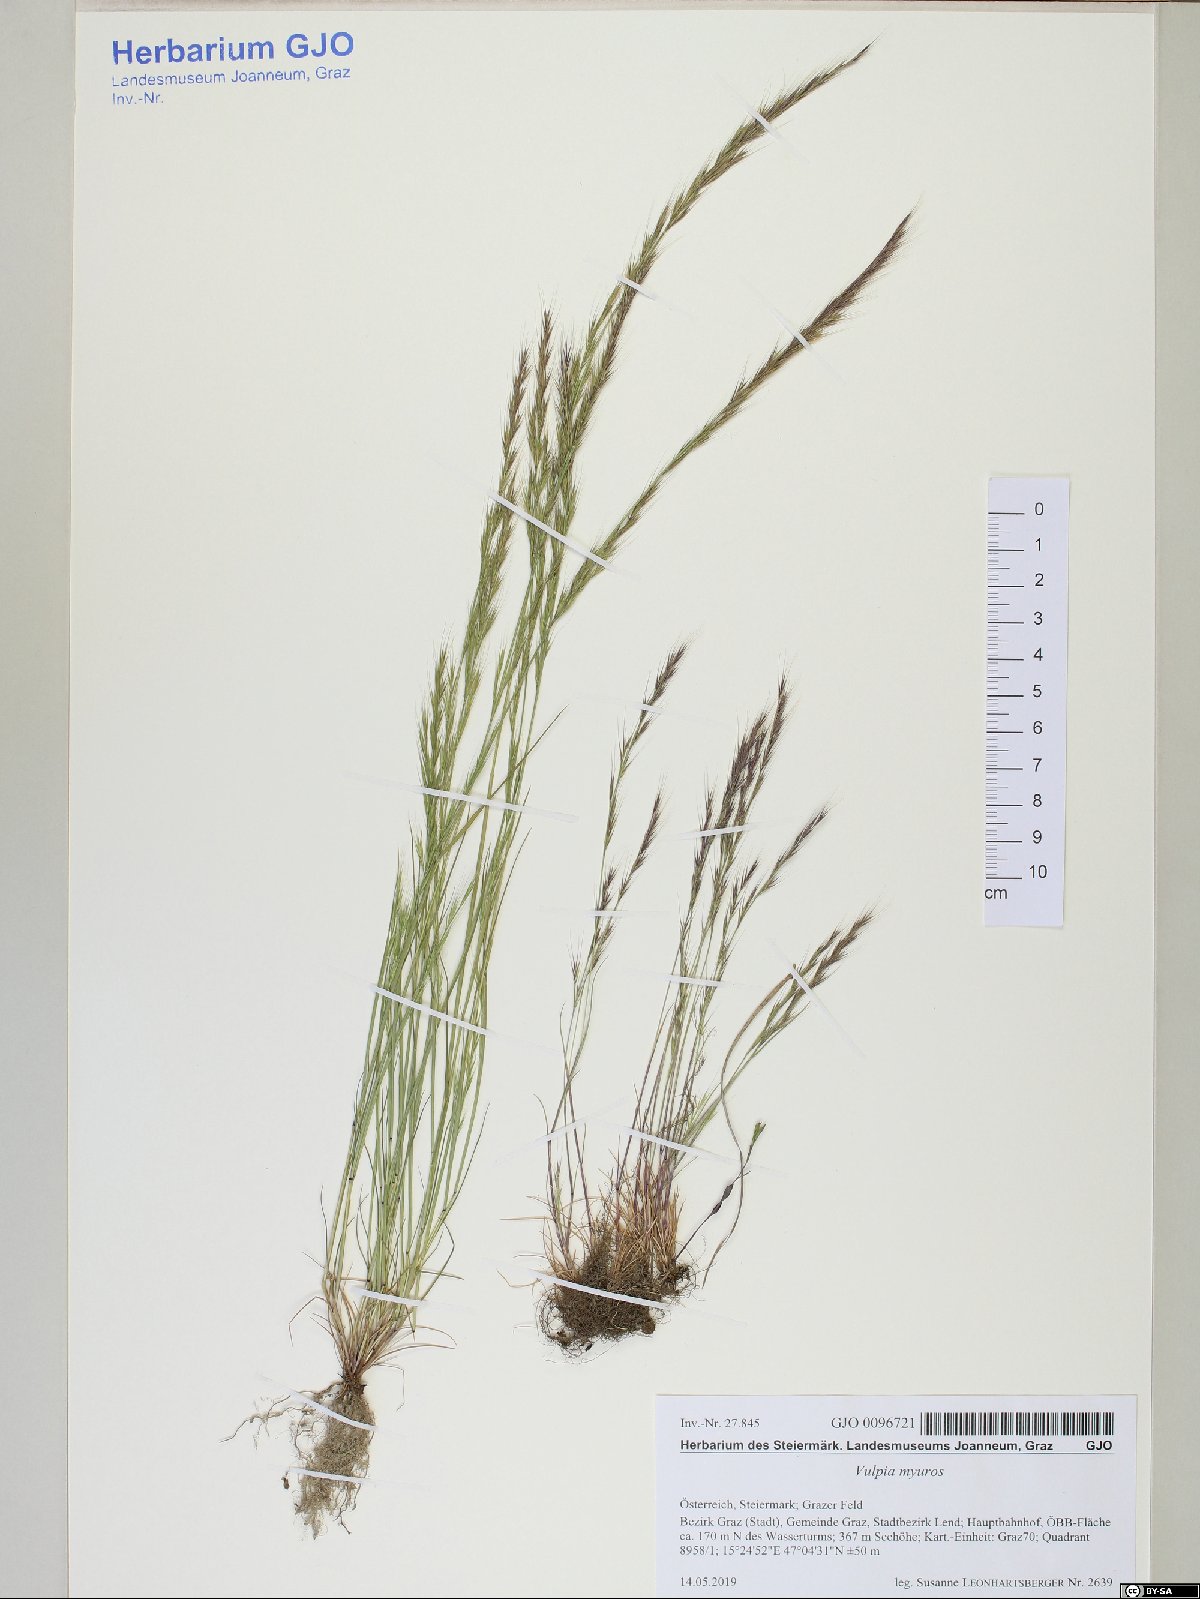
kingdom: Plantae
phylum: Tracheophyta
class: Liliopsida
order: Poales
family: Poaceae
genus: Festuca
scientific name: Festuca myuros
